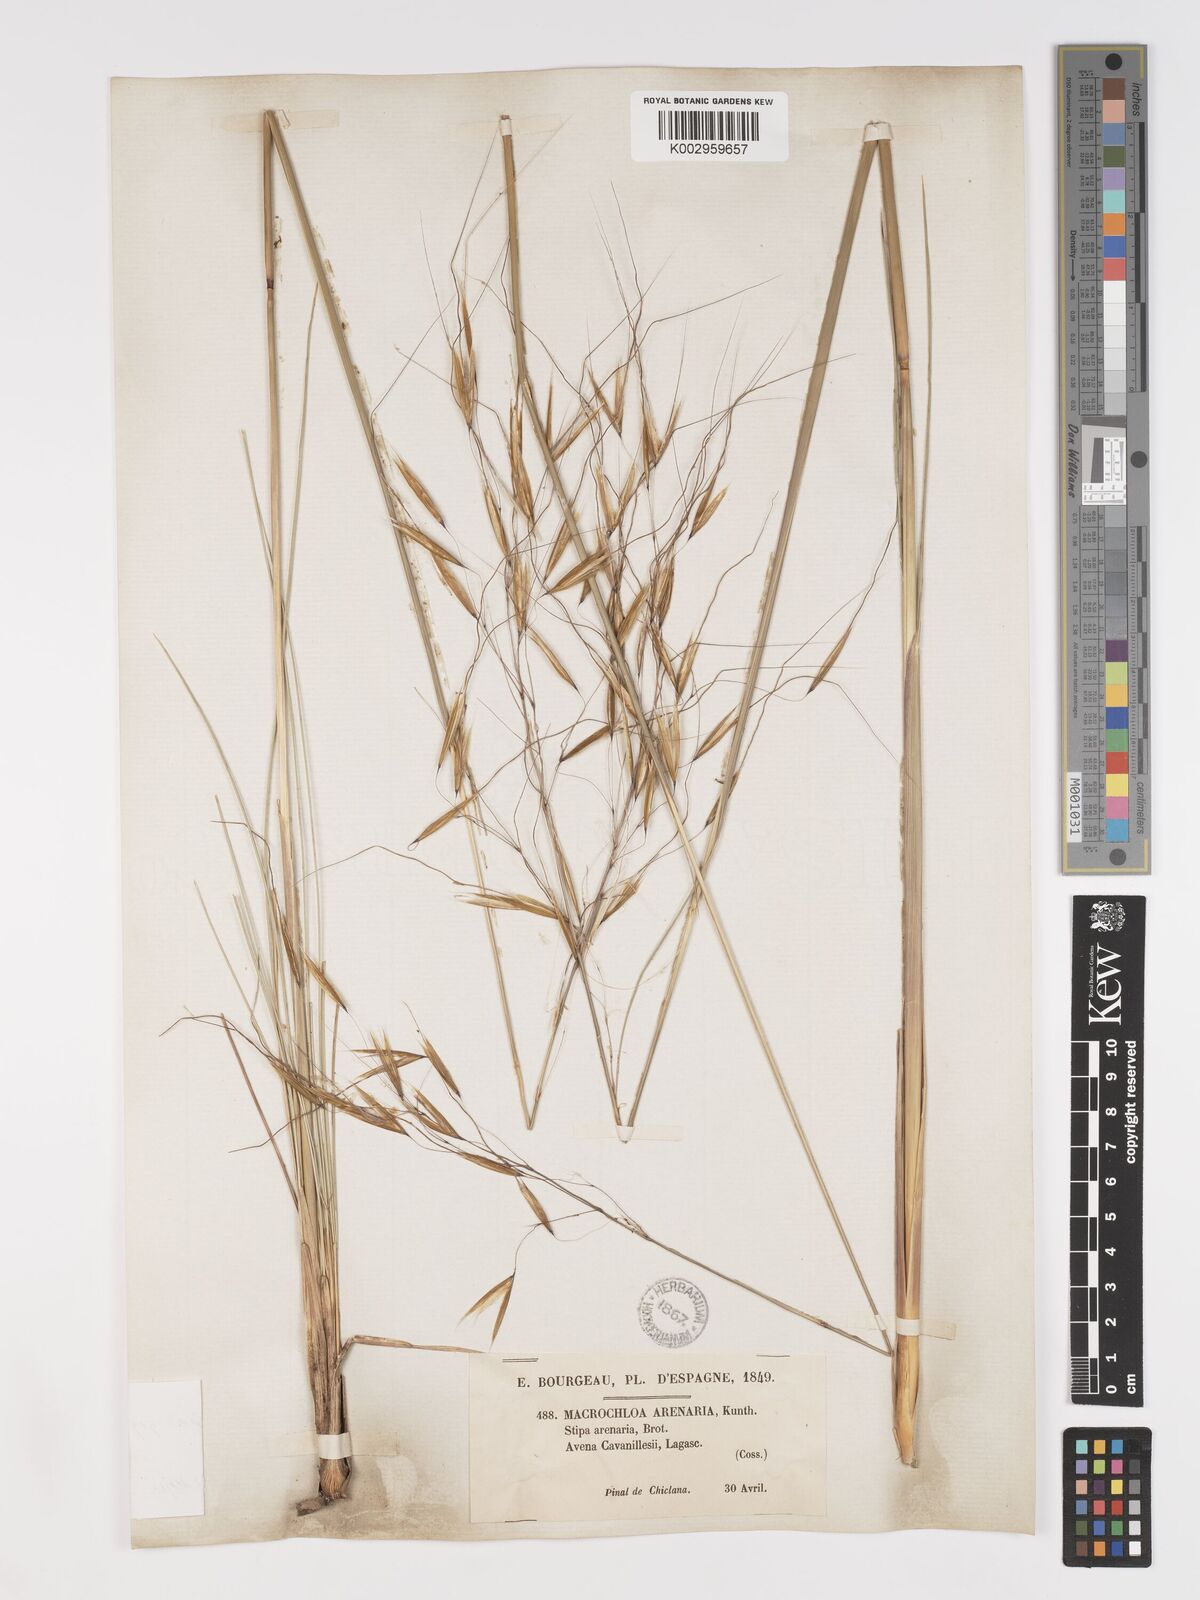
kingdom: Plantae
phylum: Tracheophyta
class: Liliopsida
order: Poales
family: Poaceae
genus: Celtica
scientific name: Celtica gigantea
